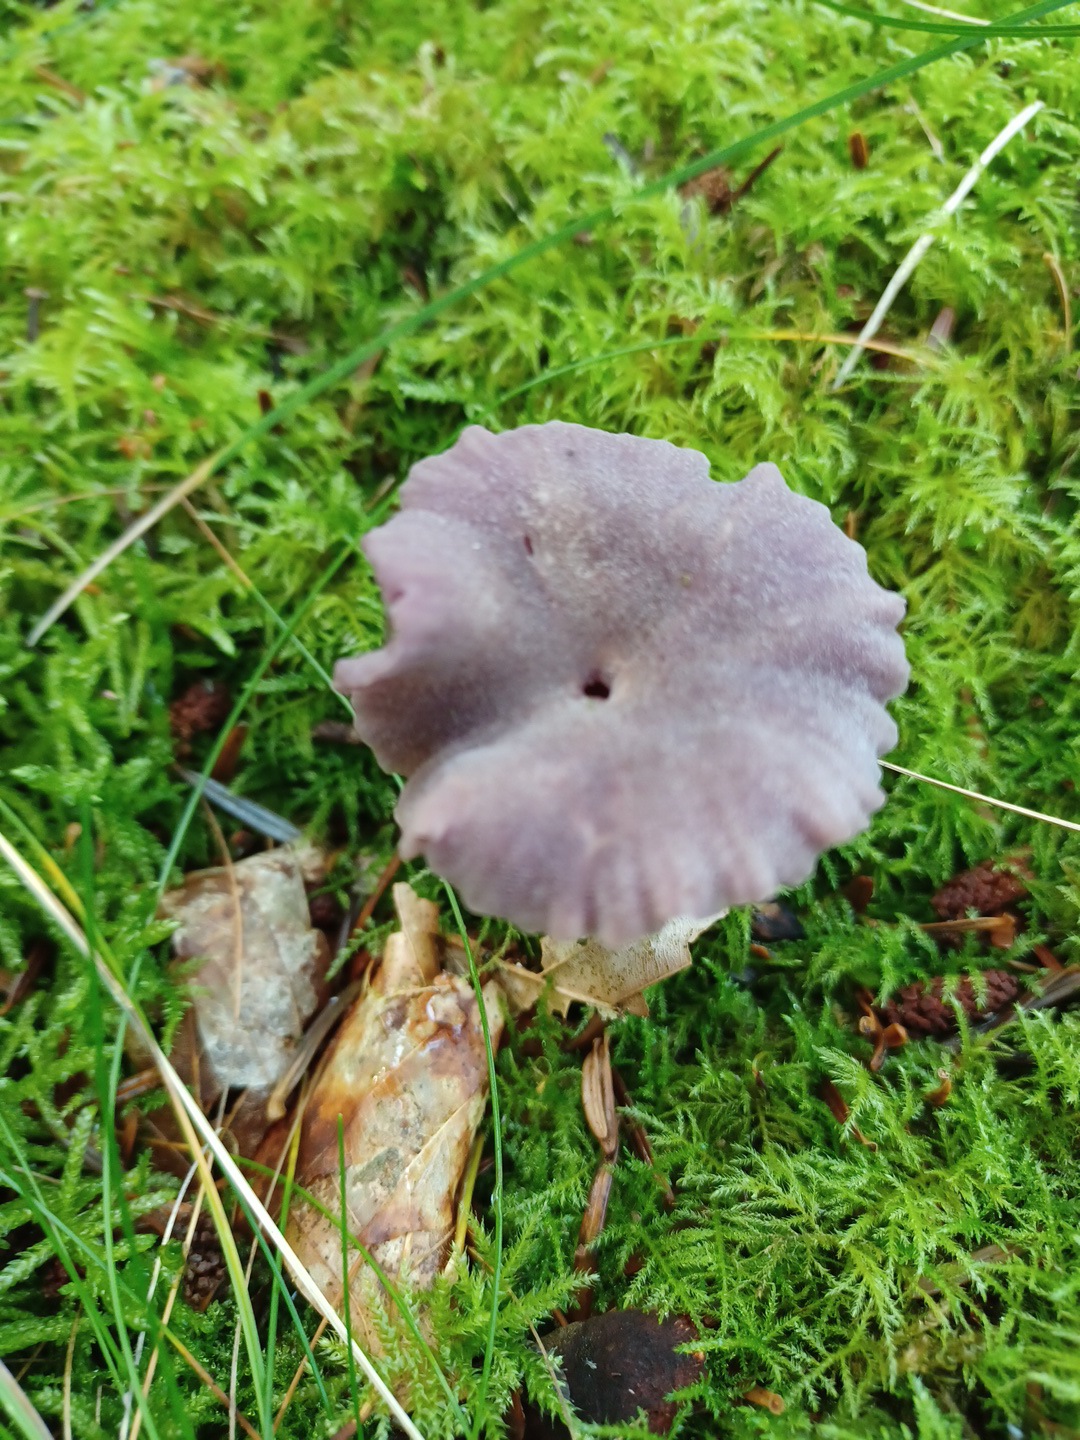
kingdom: Fungi
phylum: Basidiomycota
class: Agaricomycetes
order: Agaricales
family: Hydnangiaceae
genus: Laccaria
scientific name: Laccaria amethystina
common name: violet ametysthat
